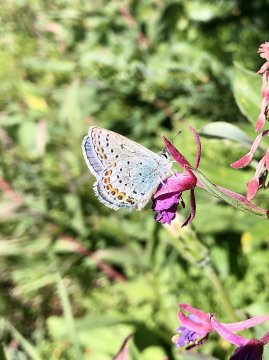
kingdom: Animalia
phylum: Arthropoda
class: Insecta
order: Lepidoptera
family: Lycaenidae
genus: Lycaeides
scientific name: Lycaeides idas
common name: Northern Blue
